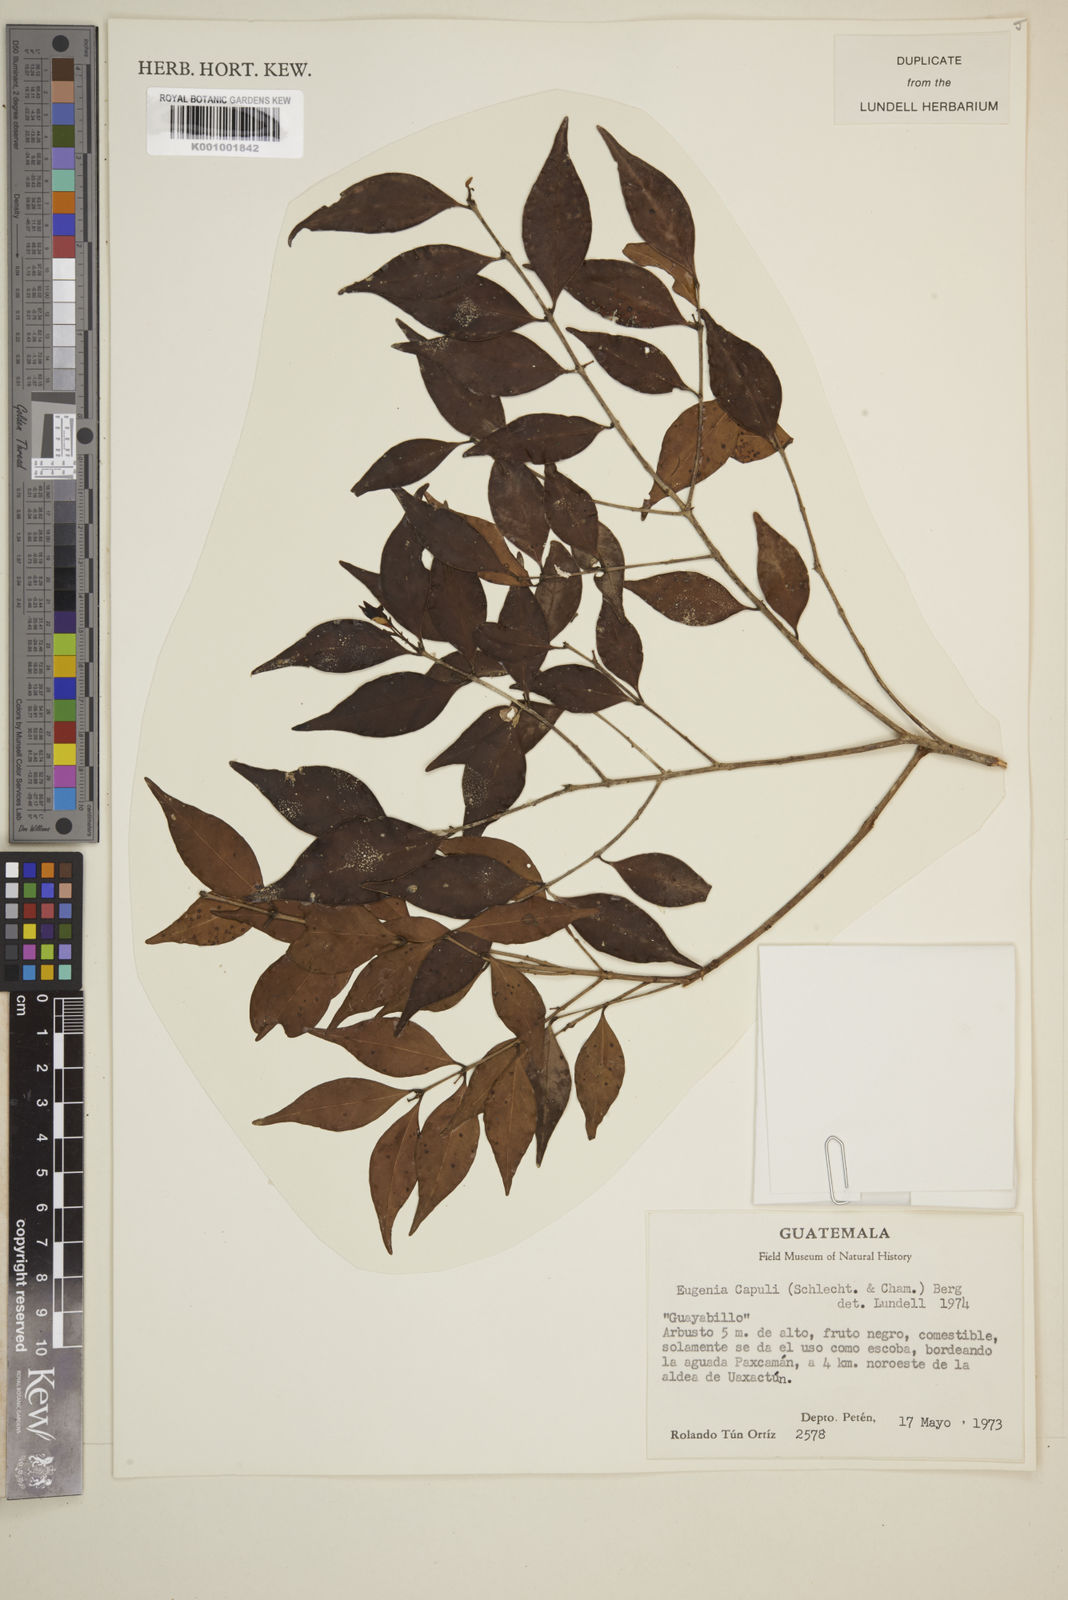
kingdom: Plantae
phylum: Tracheophyta
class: Magnoliopsida
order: Myrtales
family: Myrtaceae
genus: Eugenia
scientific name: Eugenia capuli
